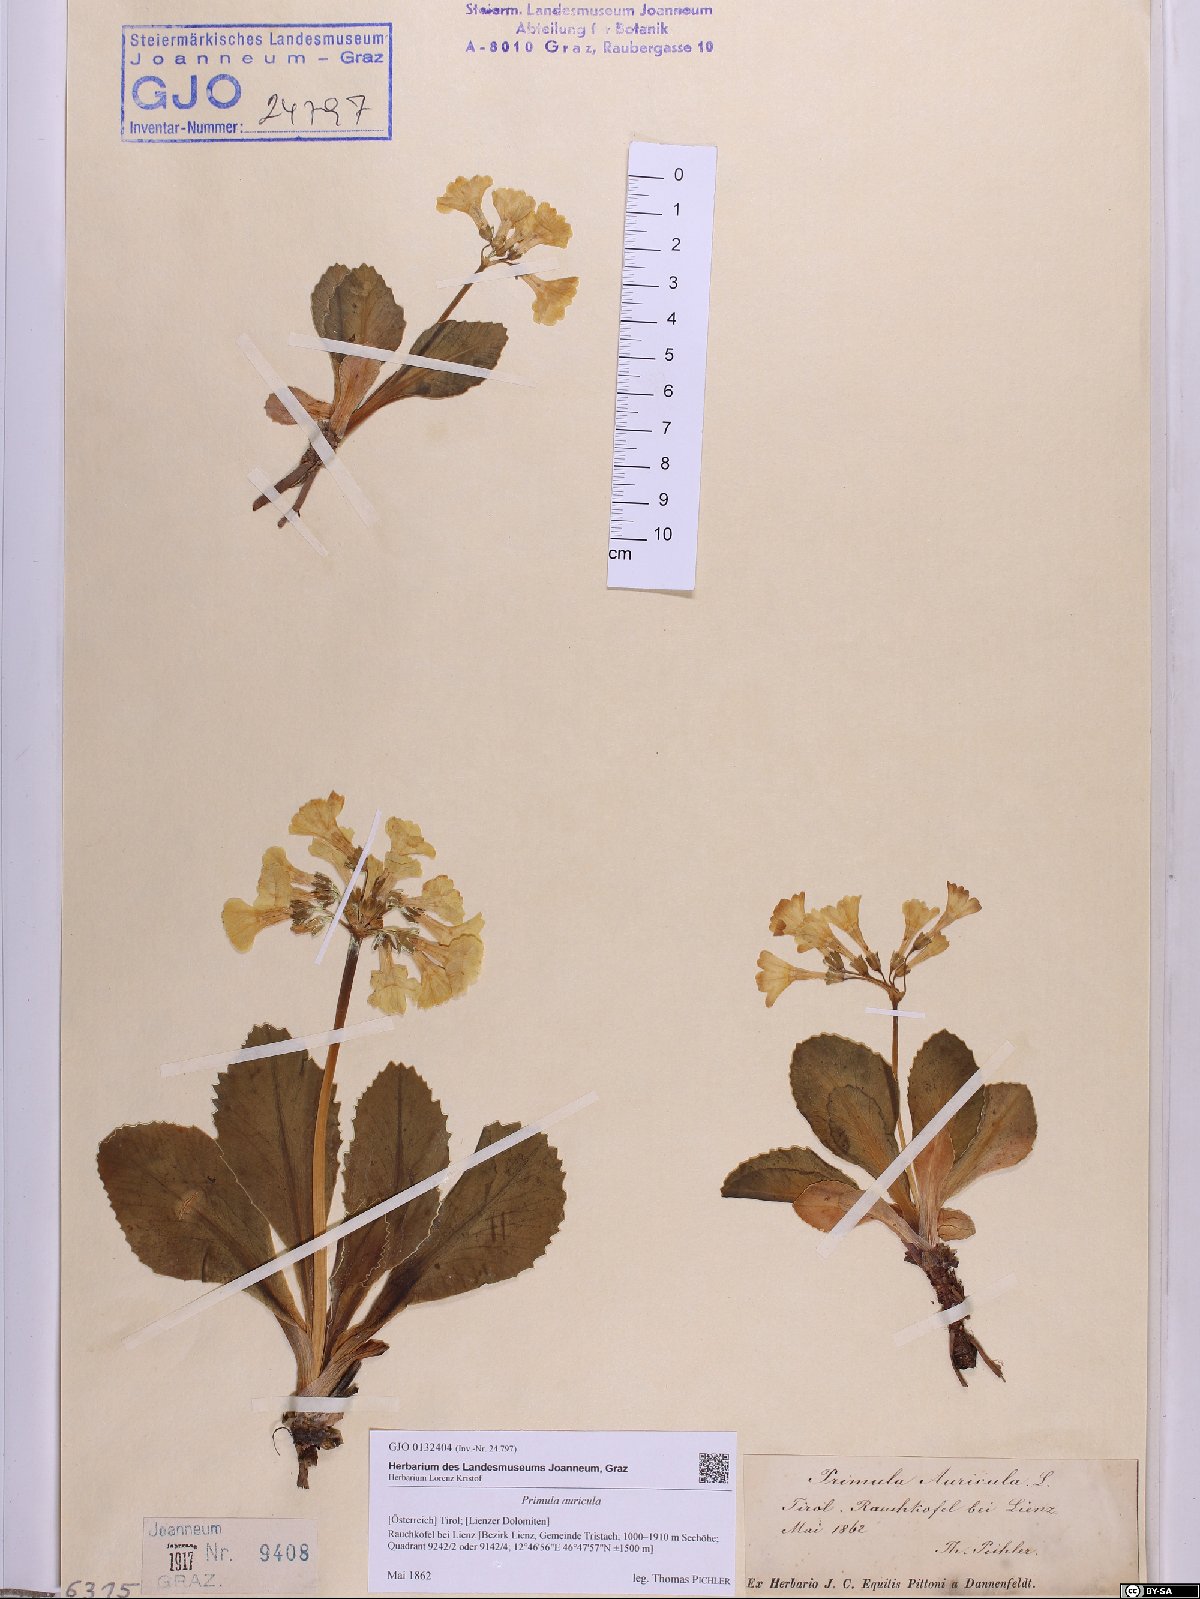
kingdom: Plantae
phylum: Tracheophyta
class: Magnoliopsida
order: Ericales
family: Primulaceae
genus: Primula
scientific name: Primula auricula
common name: Auricula
